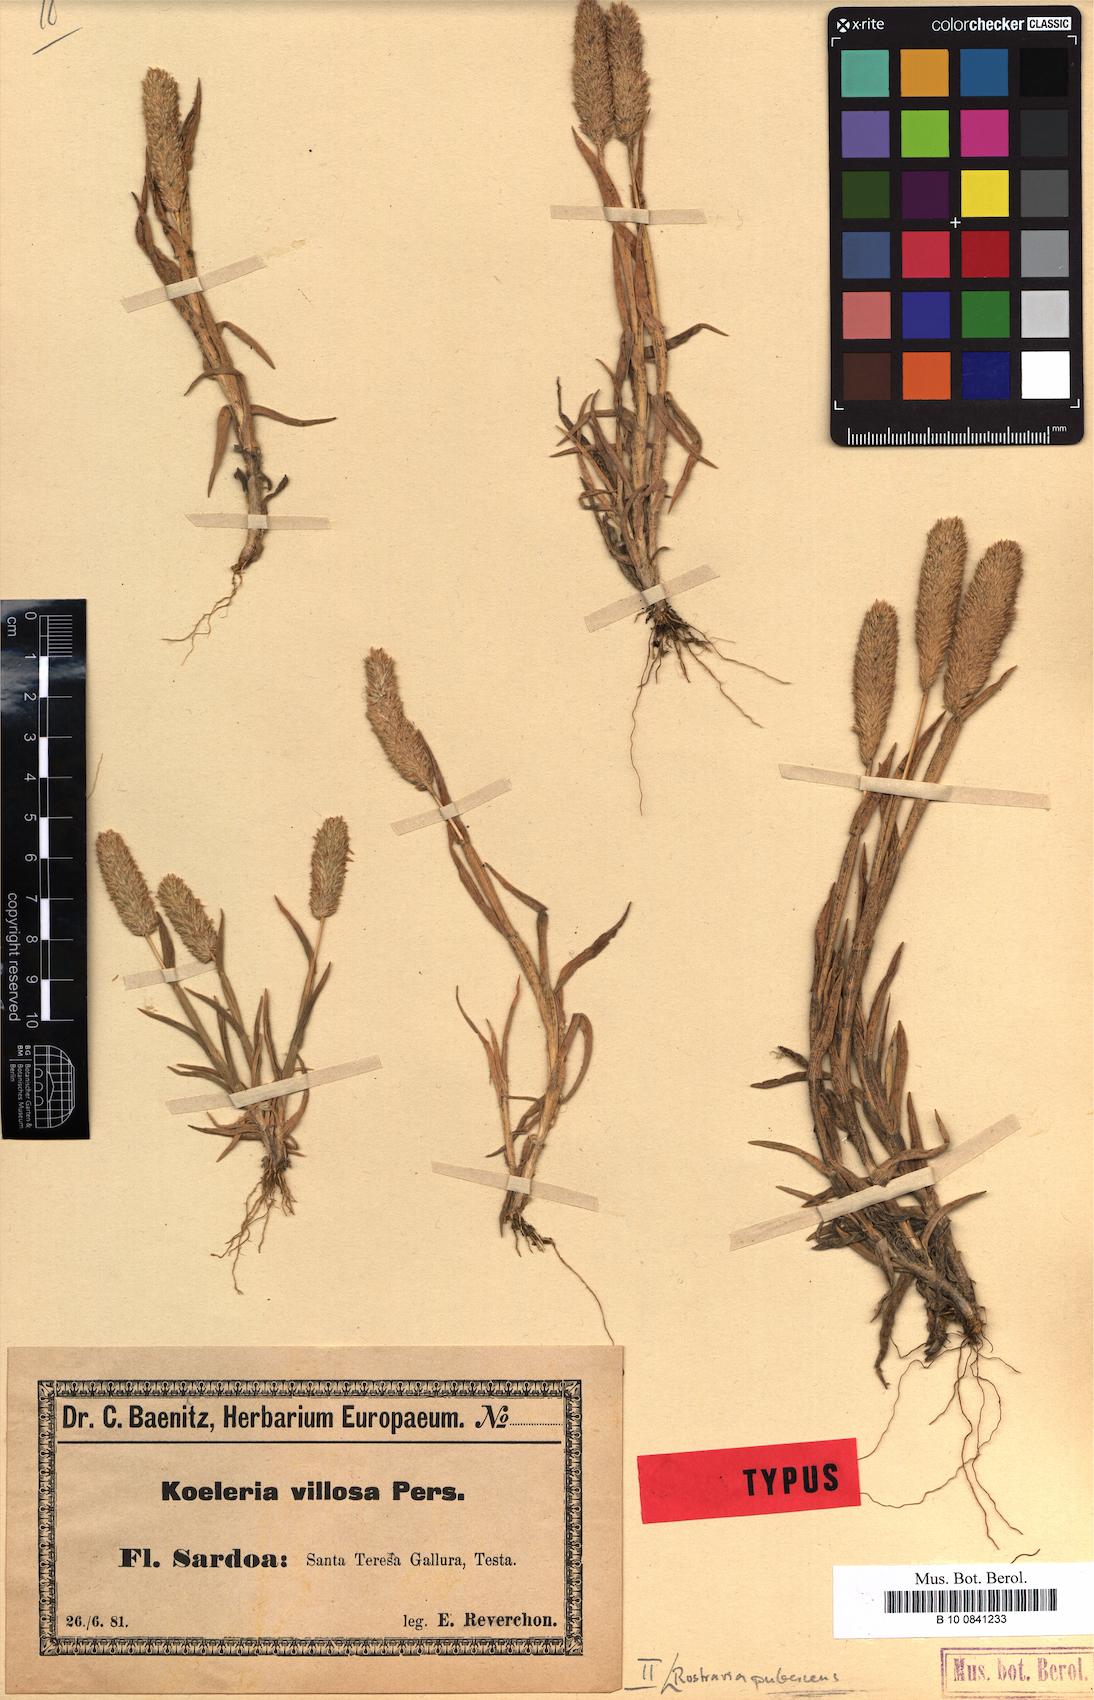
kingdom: Plantae
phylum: Tracheophyta
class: Liliopsida
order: Poales
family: Poaceae
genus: Rostraria
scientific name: Rostraria cristata
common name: Mediterranean hair-grass
